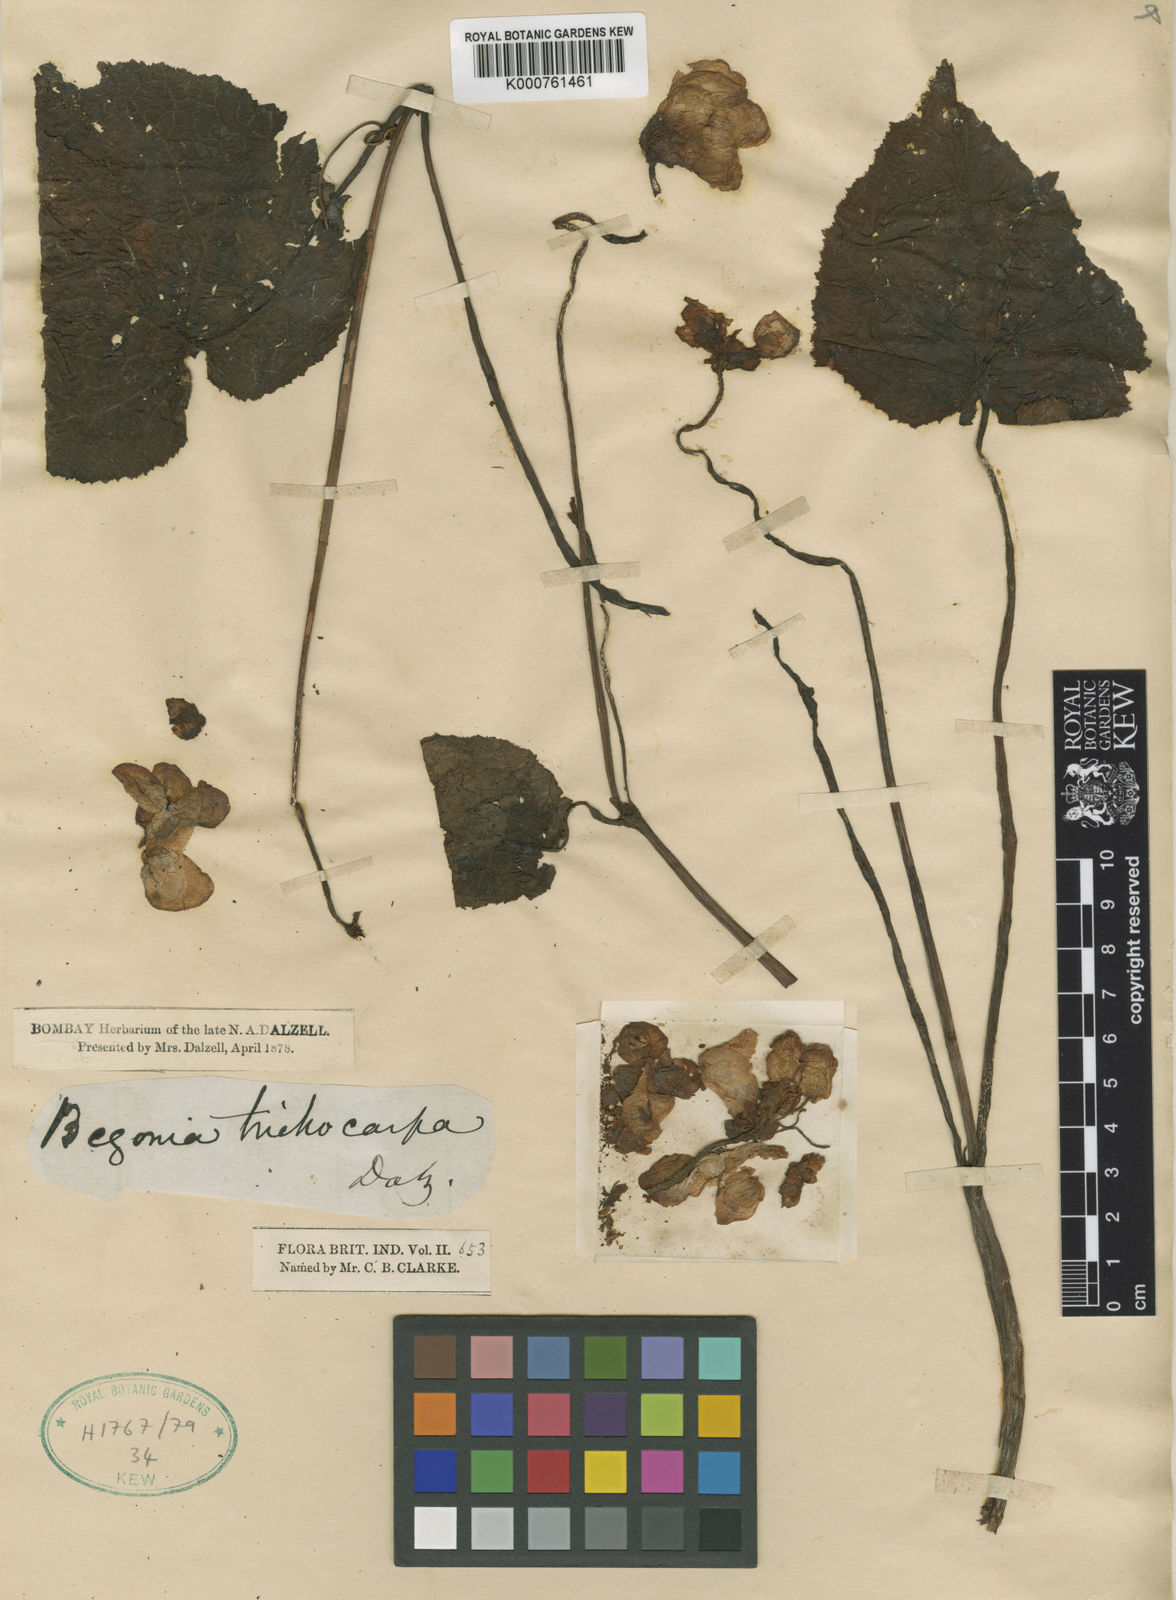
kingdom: Plantae
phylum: Tracheophyta
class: Magnoliopsida
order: Cucurbitales
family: Begoniaceae
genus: Begonia
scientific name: Begonia trichocarpa
